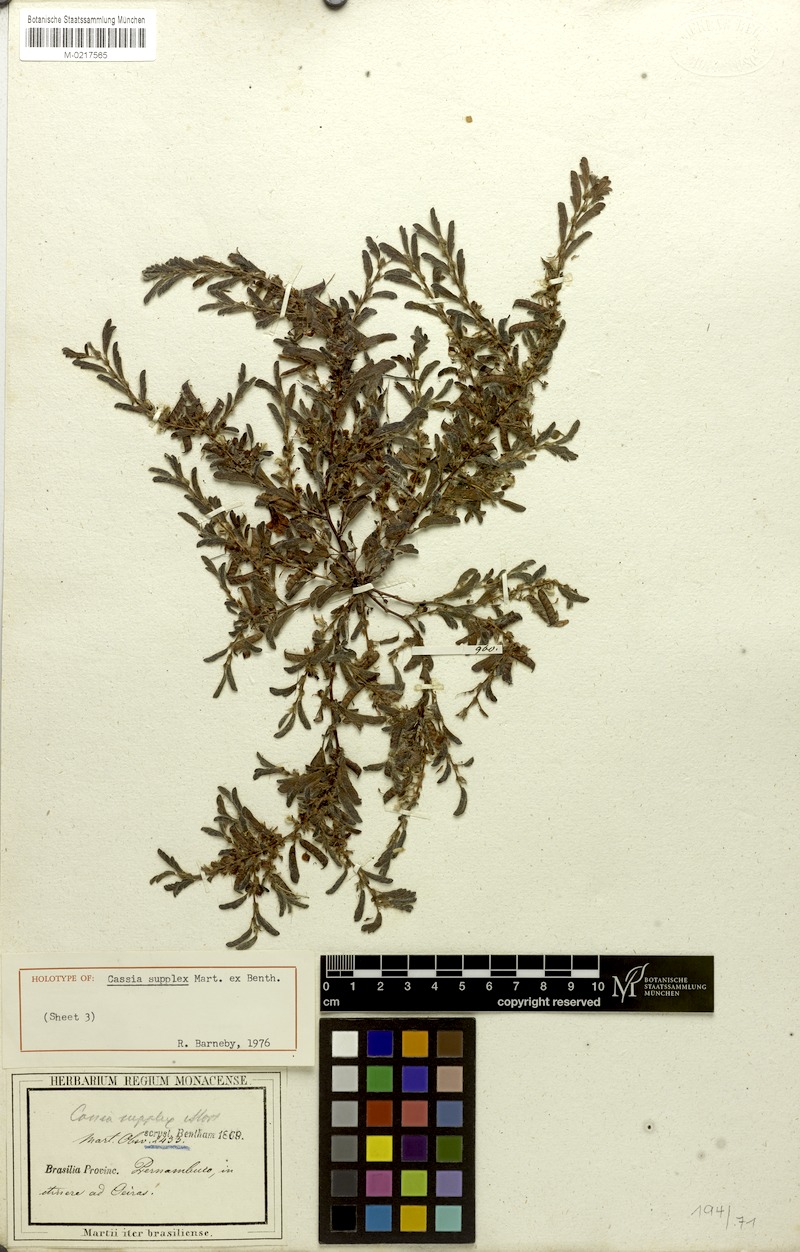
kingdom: Plantae
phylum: Tracheophyta
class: Magnoliopsida
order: Fabales
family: Fabaceae
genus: Chamaecrista
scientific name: Chamaecrista supplex
